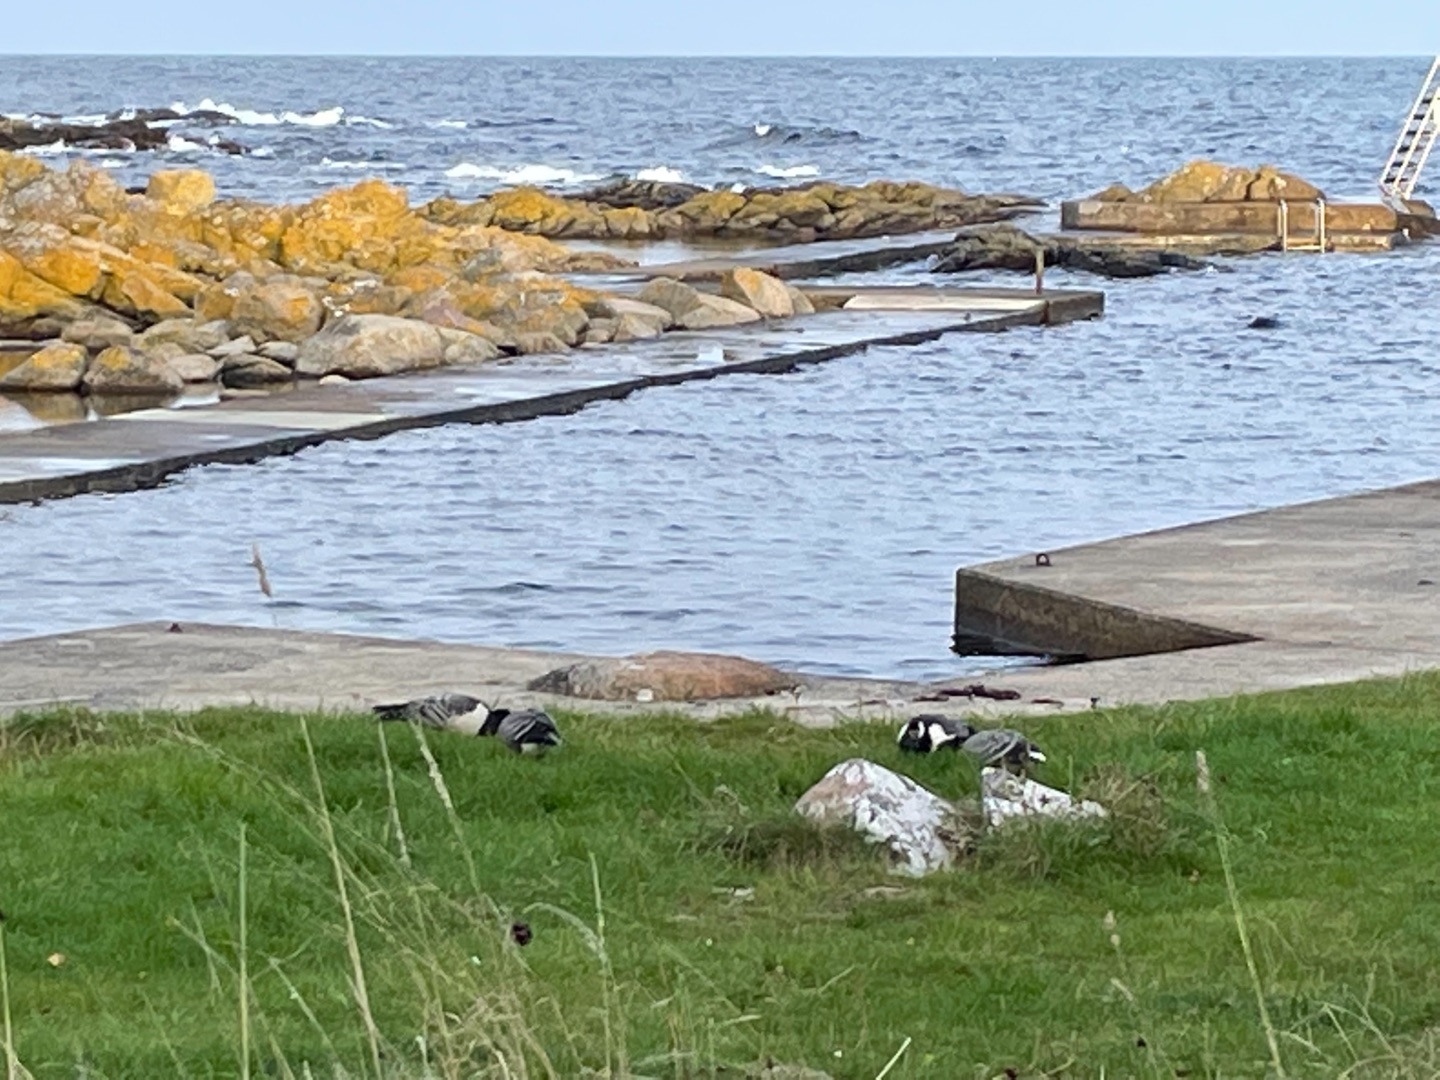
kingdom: Animalia
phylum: Chordata
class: Aves
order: Anseriformes
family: Anatidae
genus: Branta
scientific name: Branta leucopsis
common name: Bramgås
